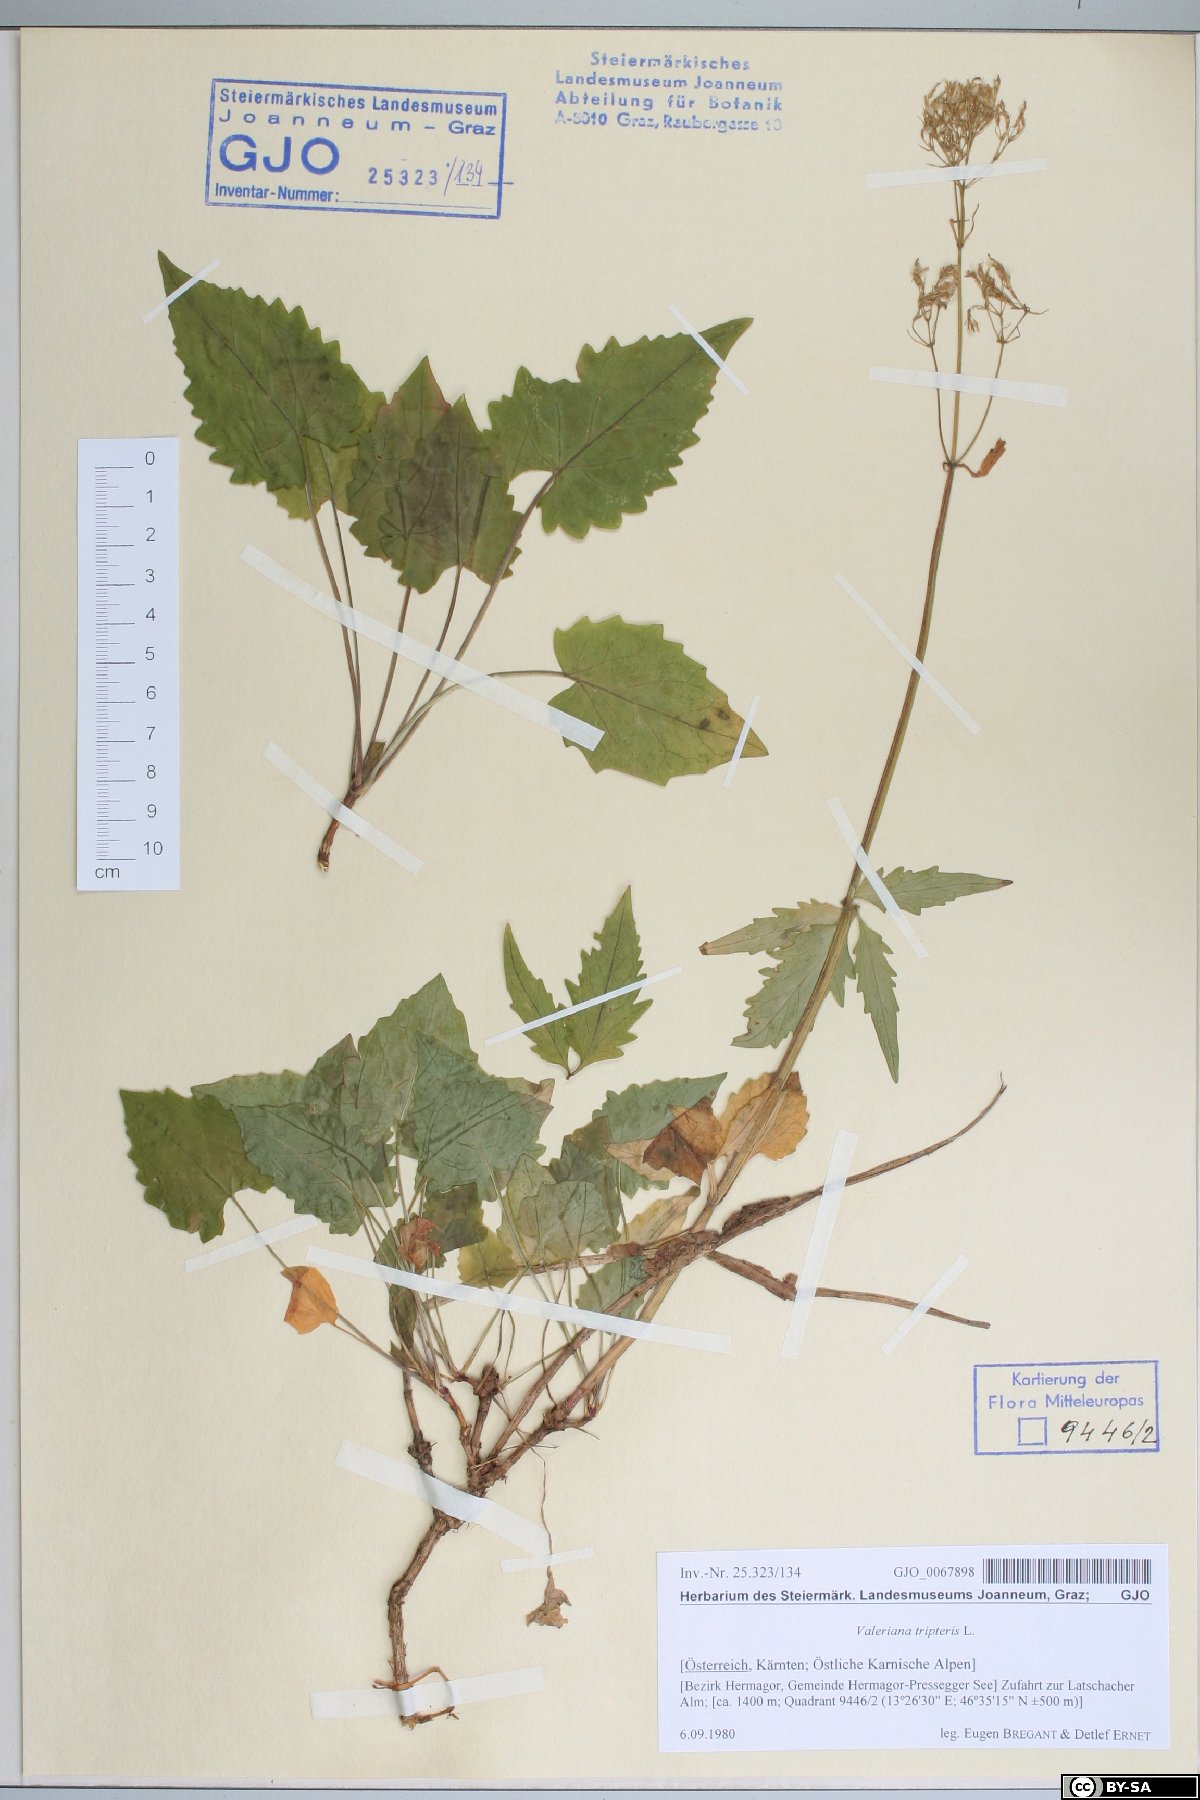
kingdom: Plantae
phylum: Tracheophyta
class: Magnoliopsida
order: Dipsacales
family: Caprifoliaceae
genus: Valeriana
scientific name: Valeriana tripteris
